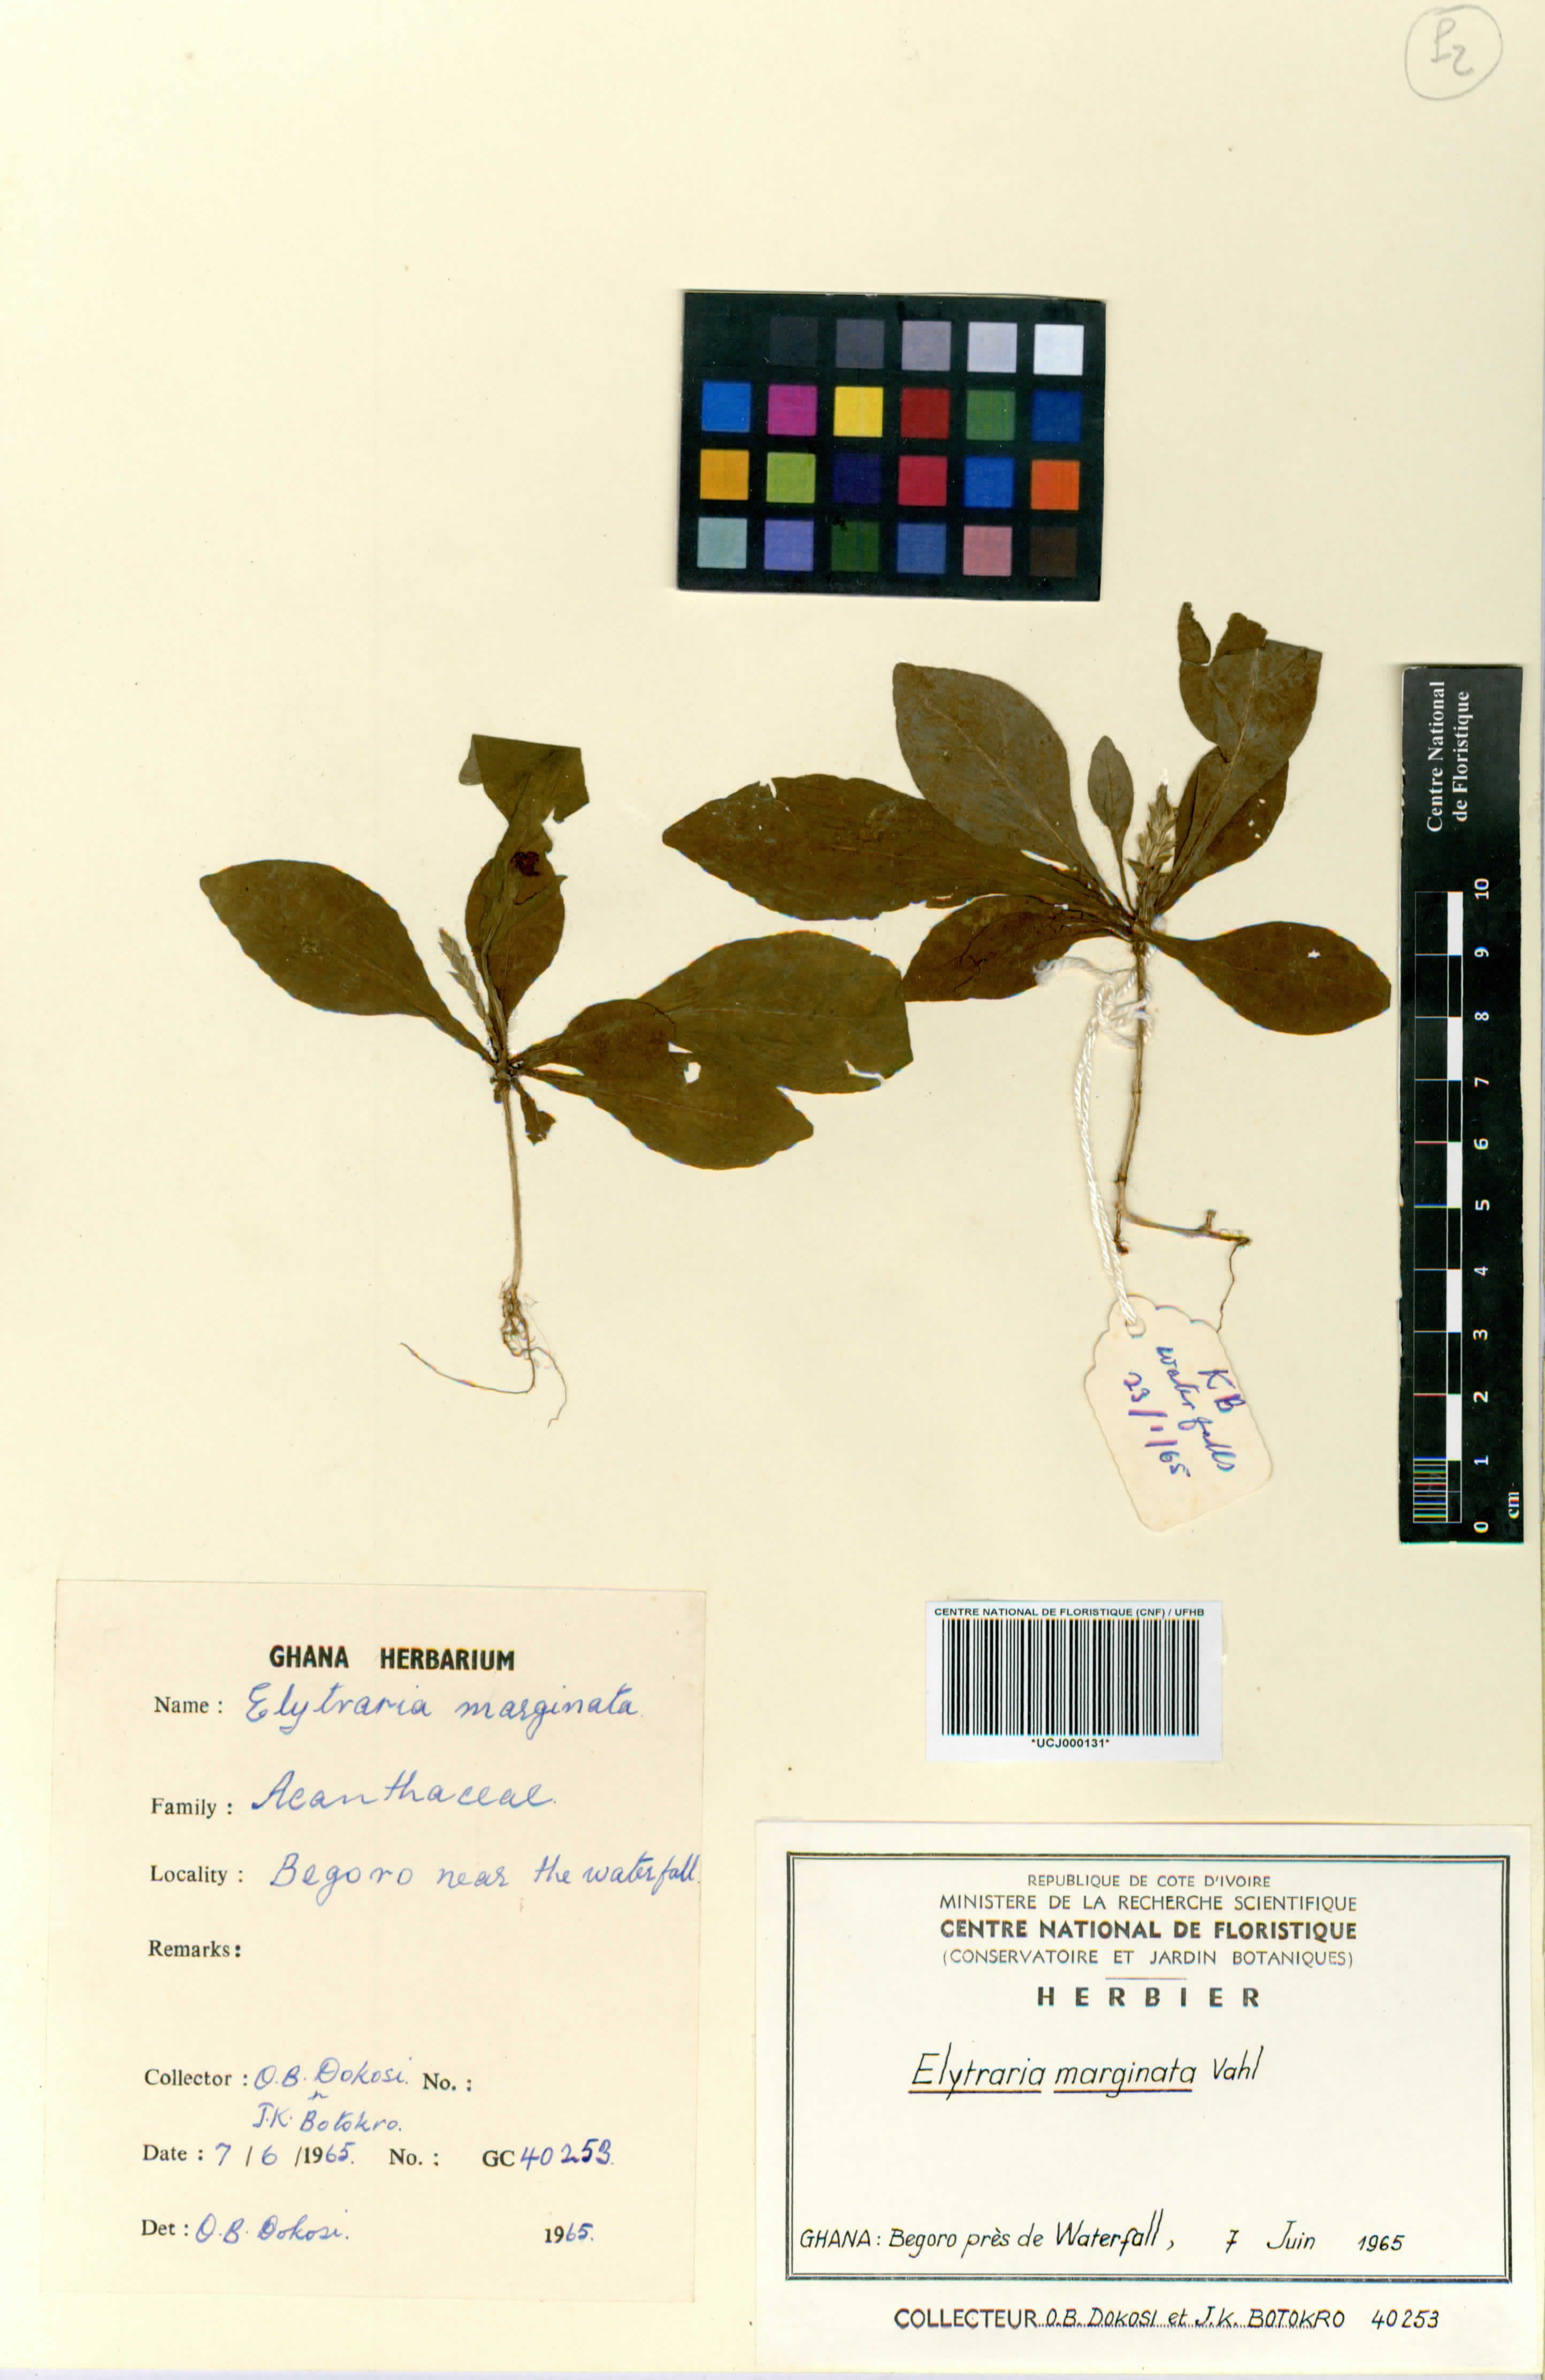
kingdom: Plantae
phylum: Tracheophyta
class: Magnoliopsida
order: Lamiales
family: Acanthaceae
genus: Elytraria
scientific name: Elytraria marginata
